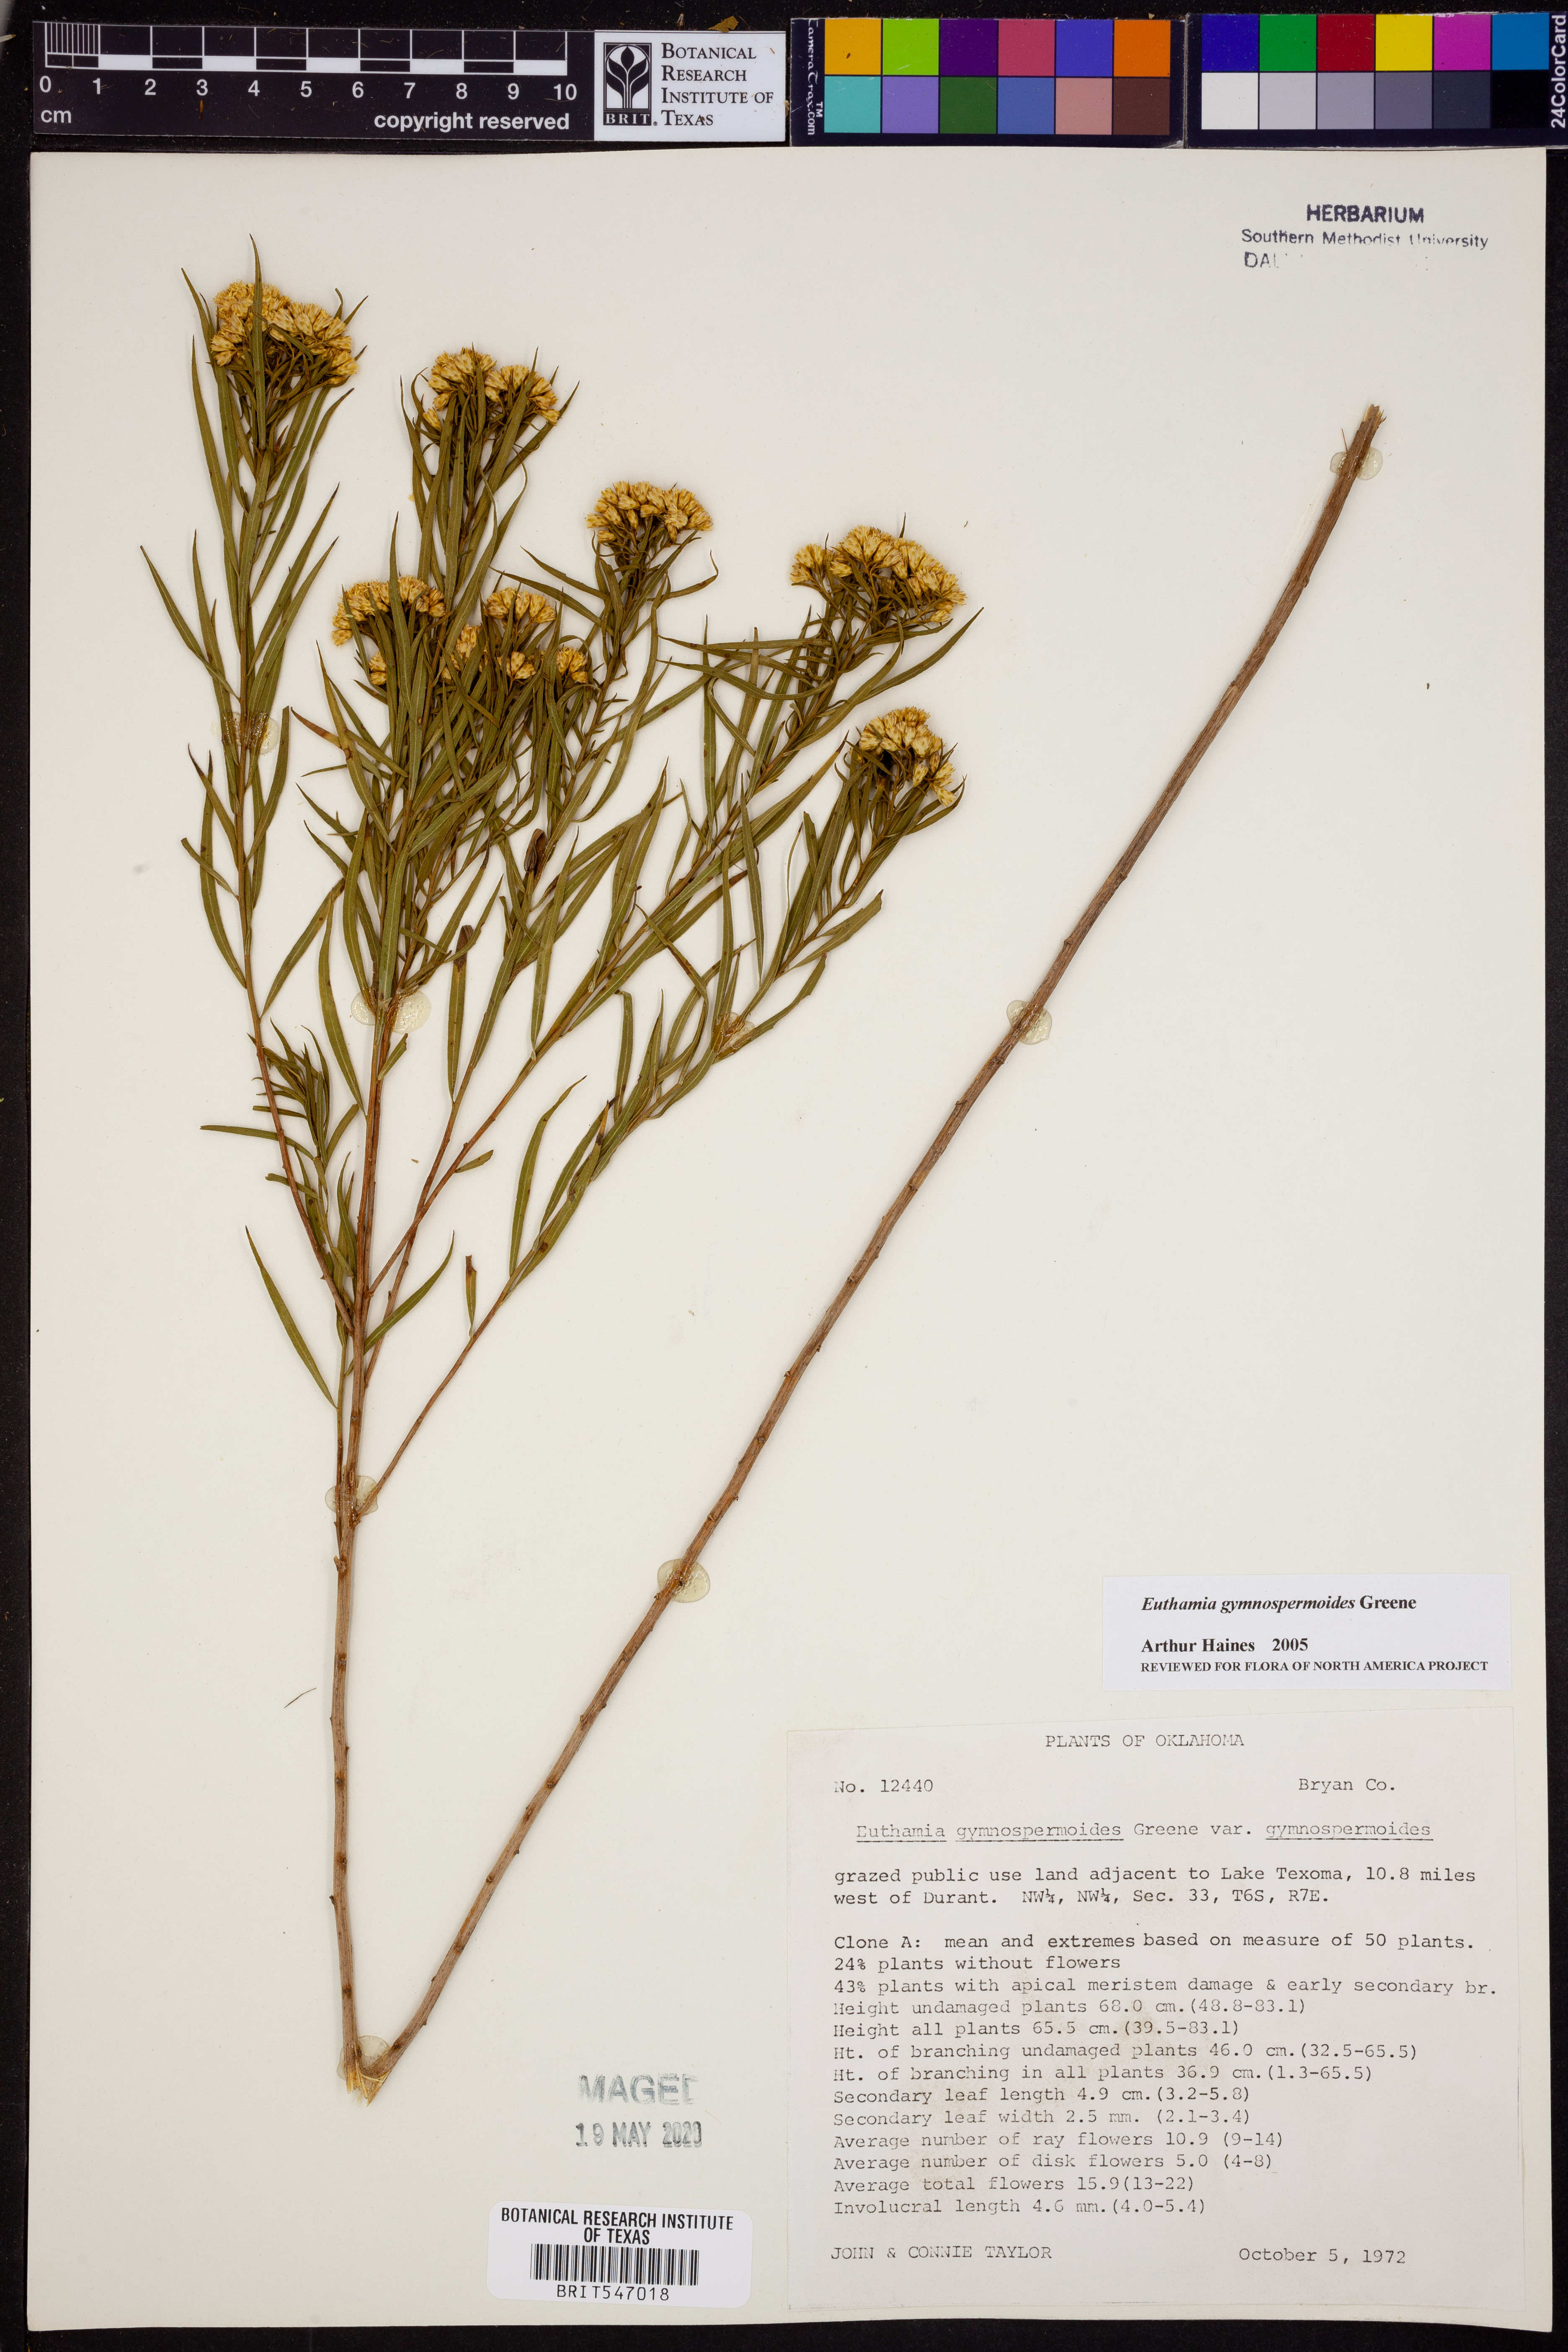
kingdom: Plantae
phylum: Tracheophyta
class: Magnoliopsida
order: Asterales
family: Asteraceae
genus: Euthamia
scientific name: Euthamia gymnospermoides
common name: Great plains goldentop
